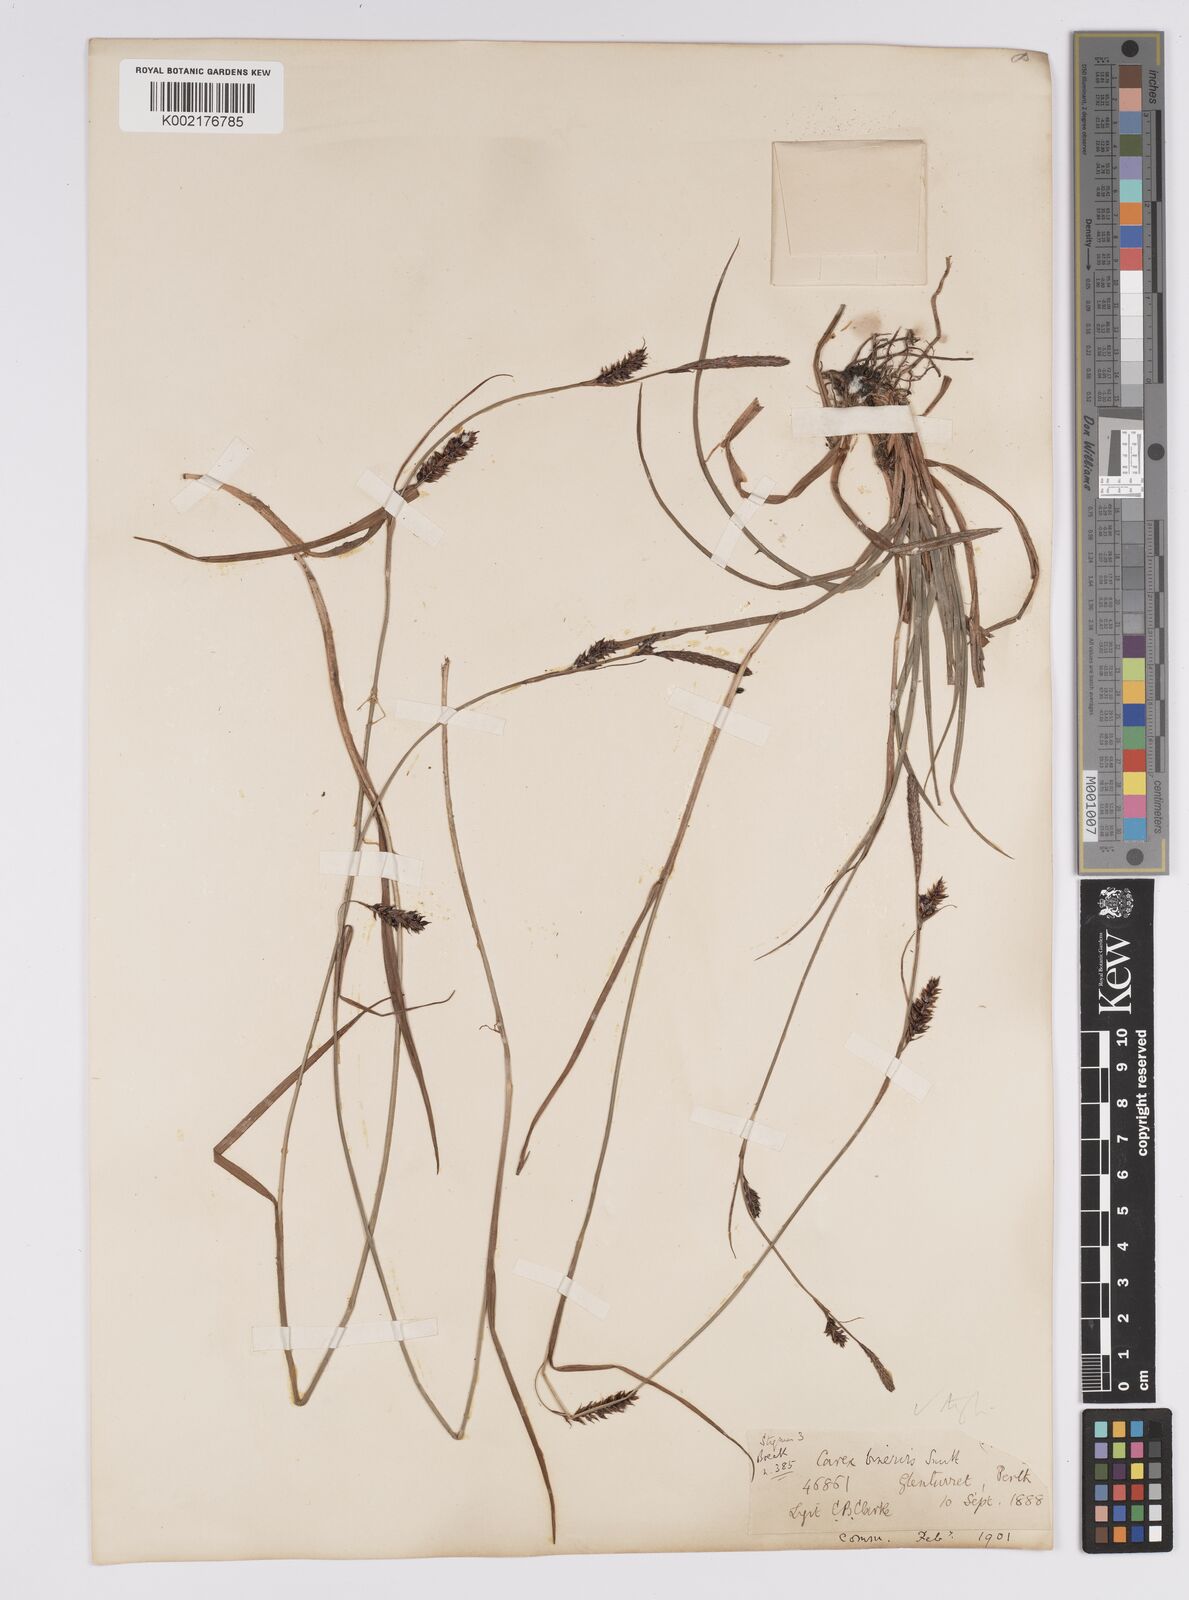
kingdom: Plantae
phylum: Tracheophyta
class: Liliopsida
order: Poales
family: Cyperaceae
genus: Carex
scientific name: Carex binervis
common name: Green-ribbed sedge
